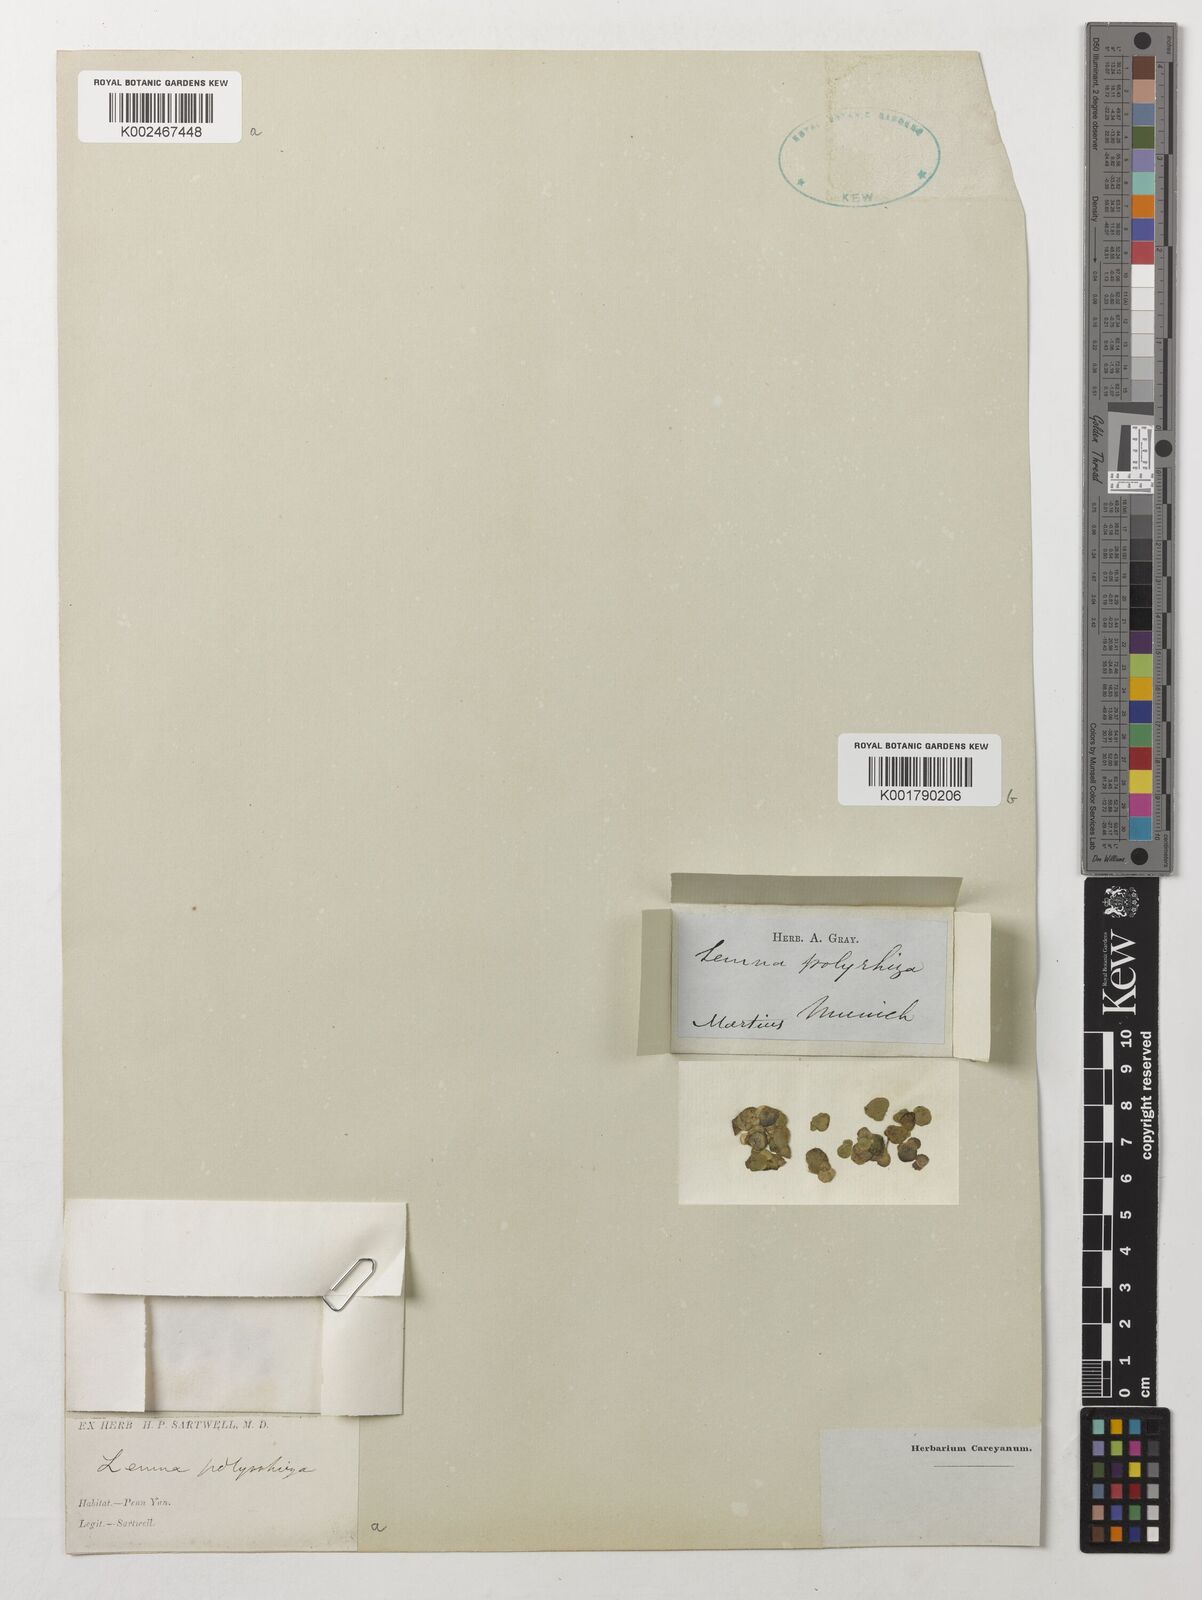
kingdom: Plantae
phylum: Tracheophyta
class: Liliopsida
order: Alismatales
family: Araceae
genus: Spirodela
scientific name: Spirodela polyrhiza
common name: Great duckweed
